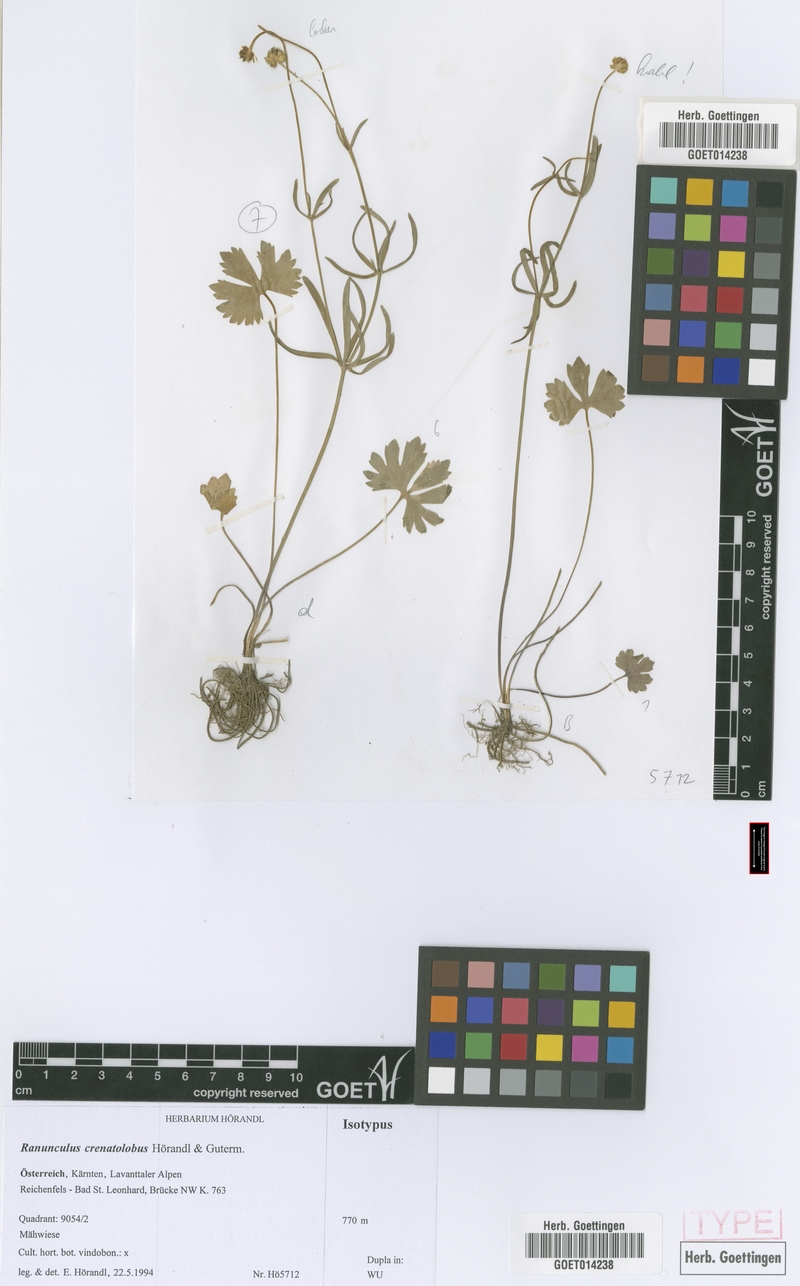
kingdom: Plantae
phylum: Tracheophyta
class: Magnoliopsida
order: Ranunculales
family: Ranunculaceae
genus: Ranunculus
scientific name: Ranunculus crenatolobus
